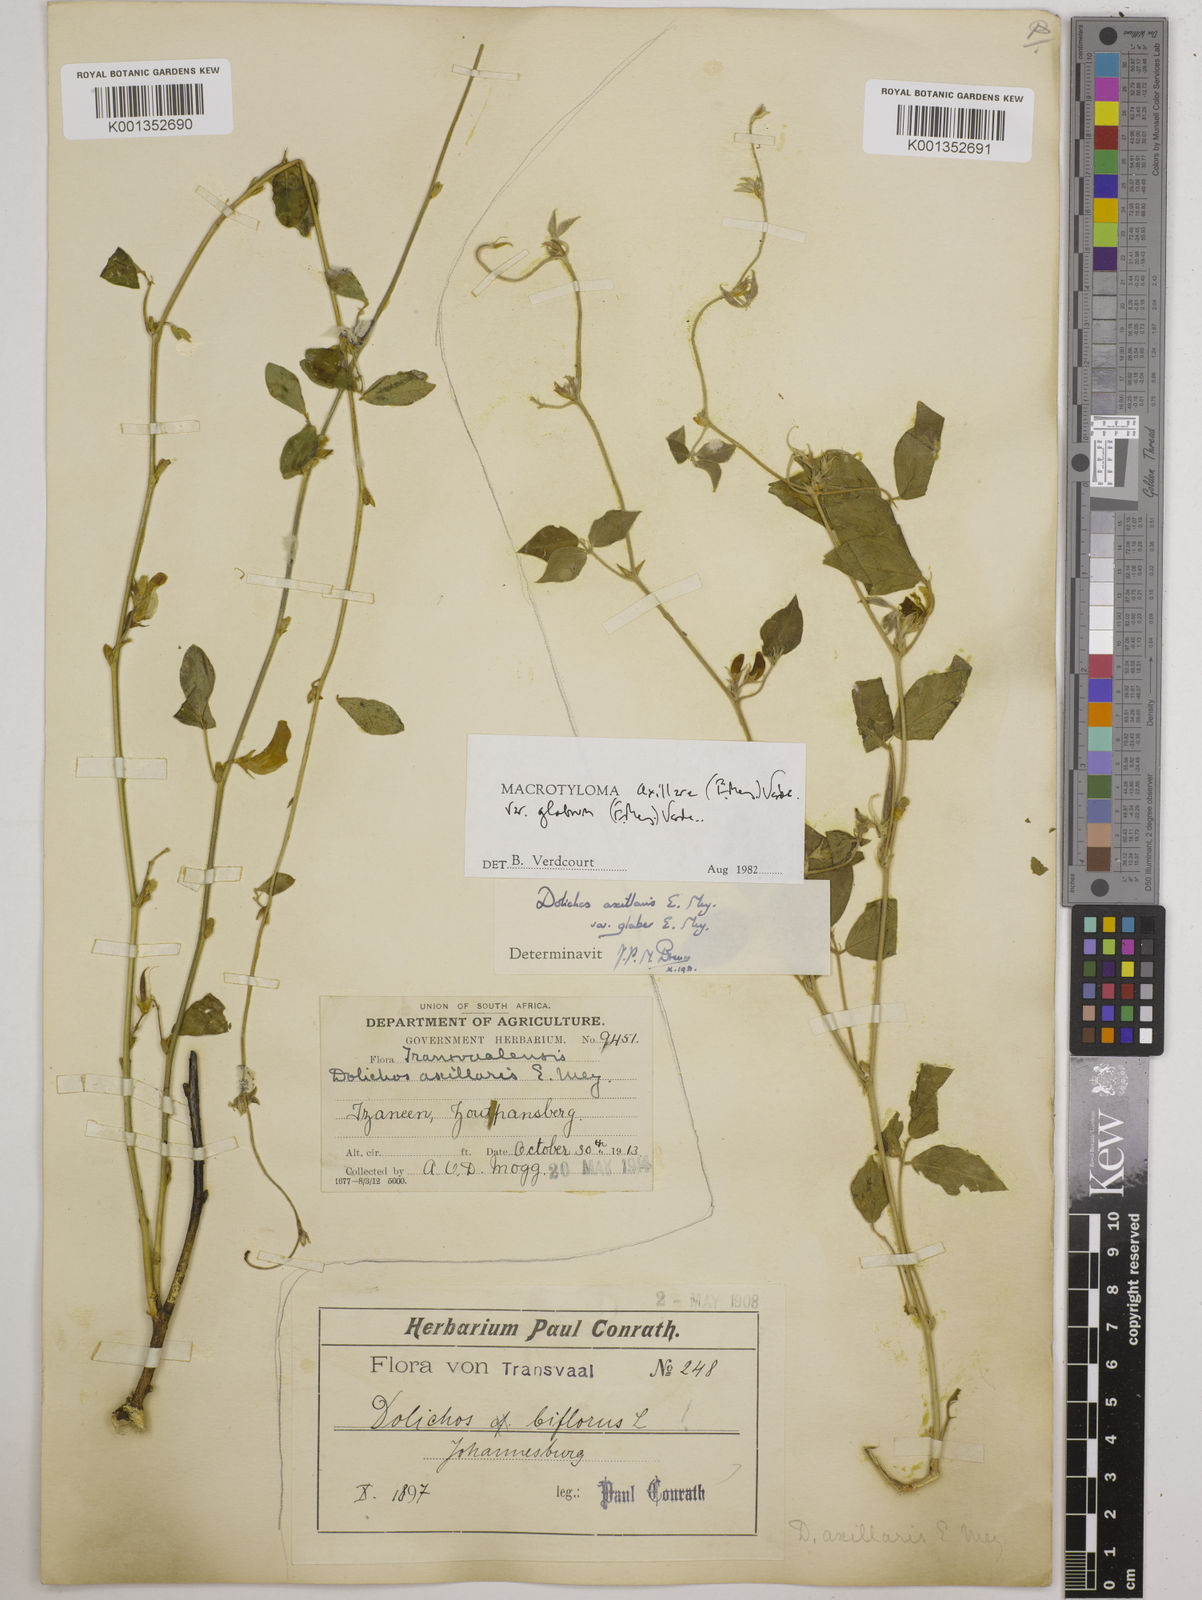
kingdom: Plantae
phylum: Tracheophyta
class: Magnoliopsida
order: Fabales
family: Fabaceae
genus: Macrotyloma
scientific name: Macrotyloma
